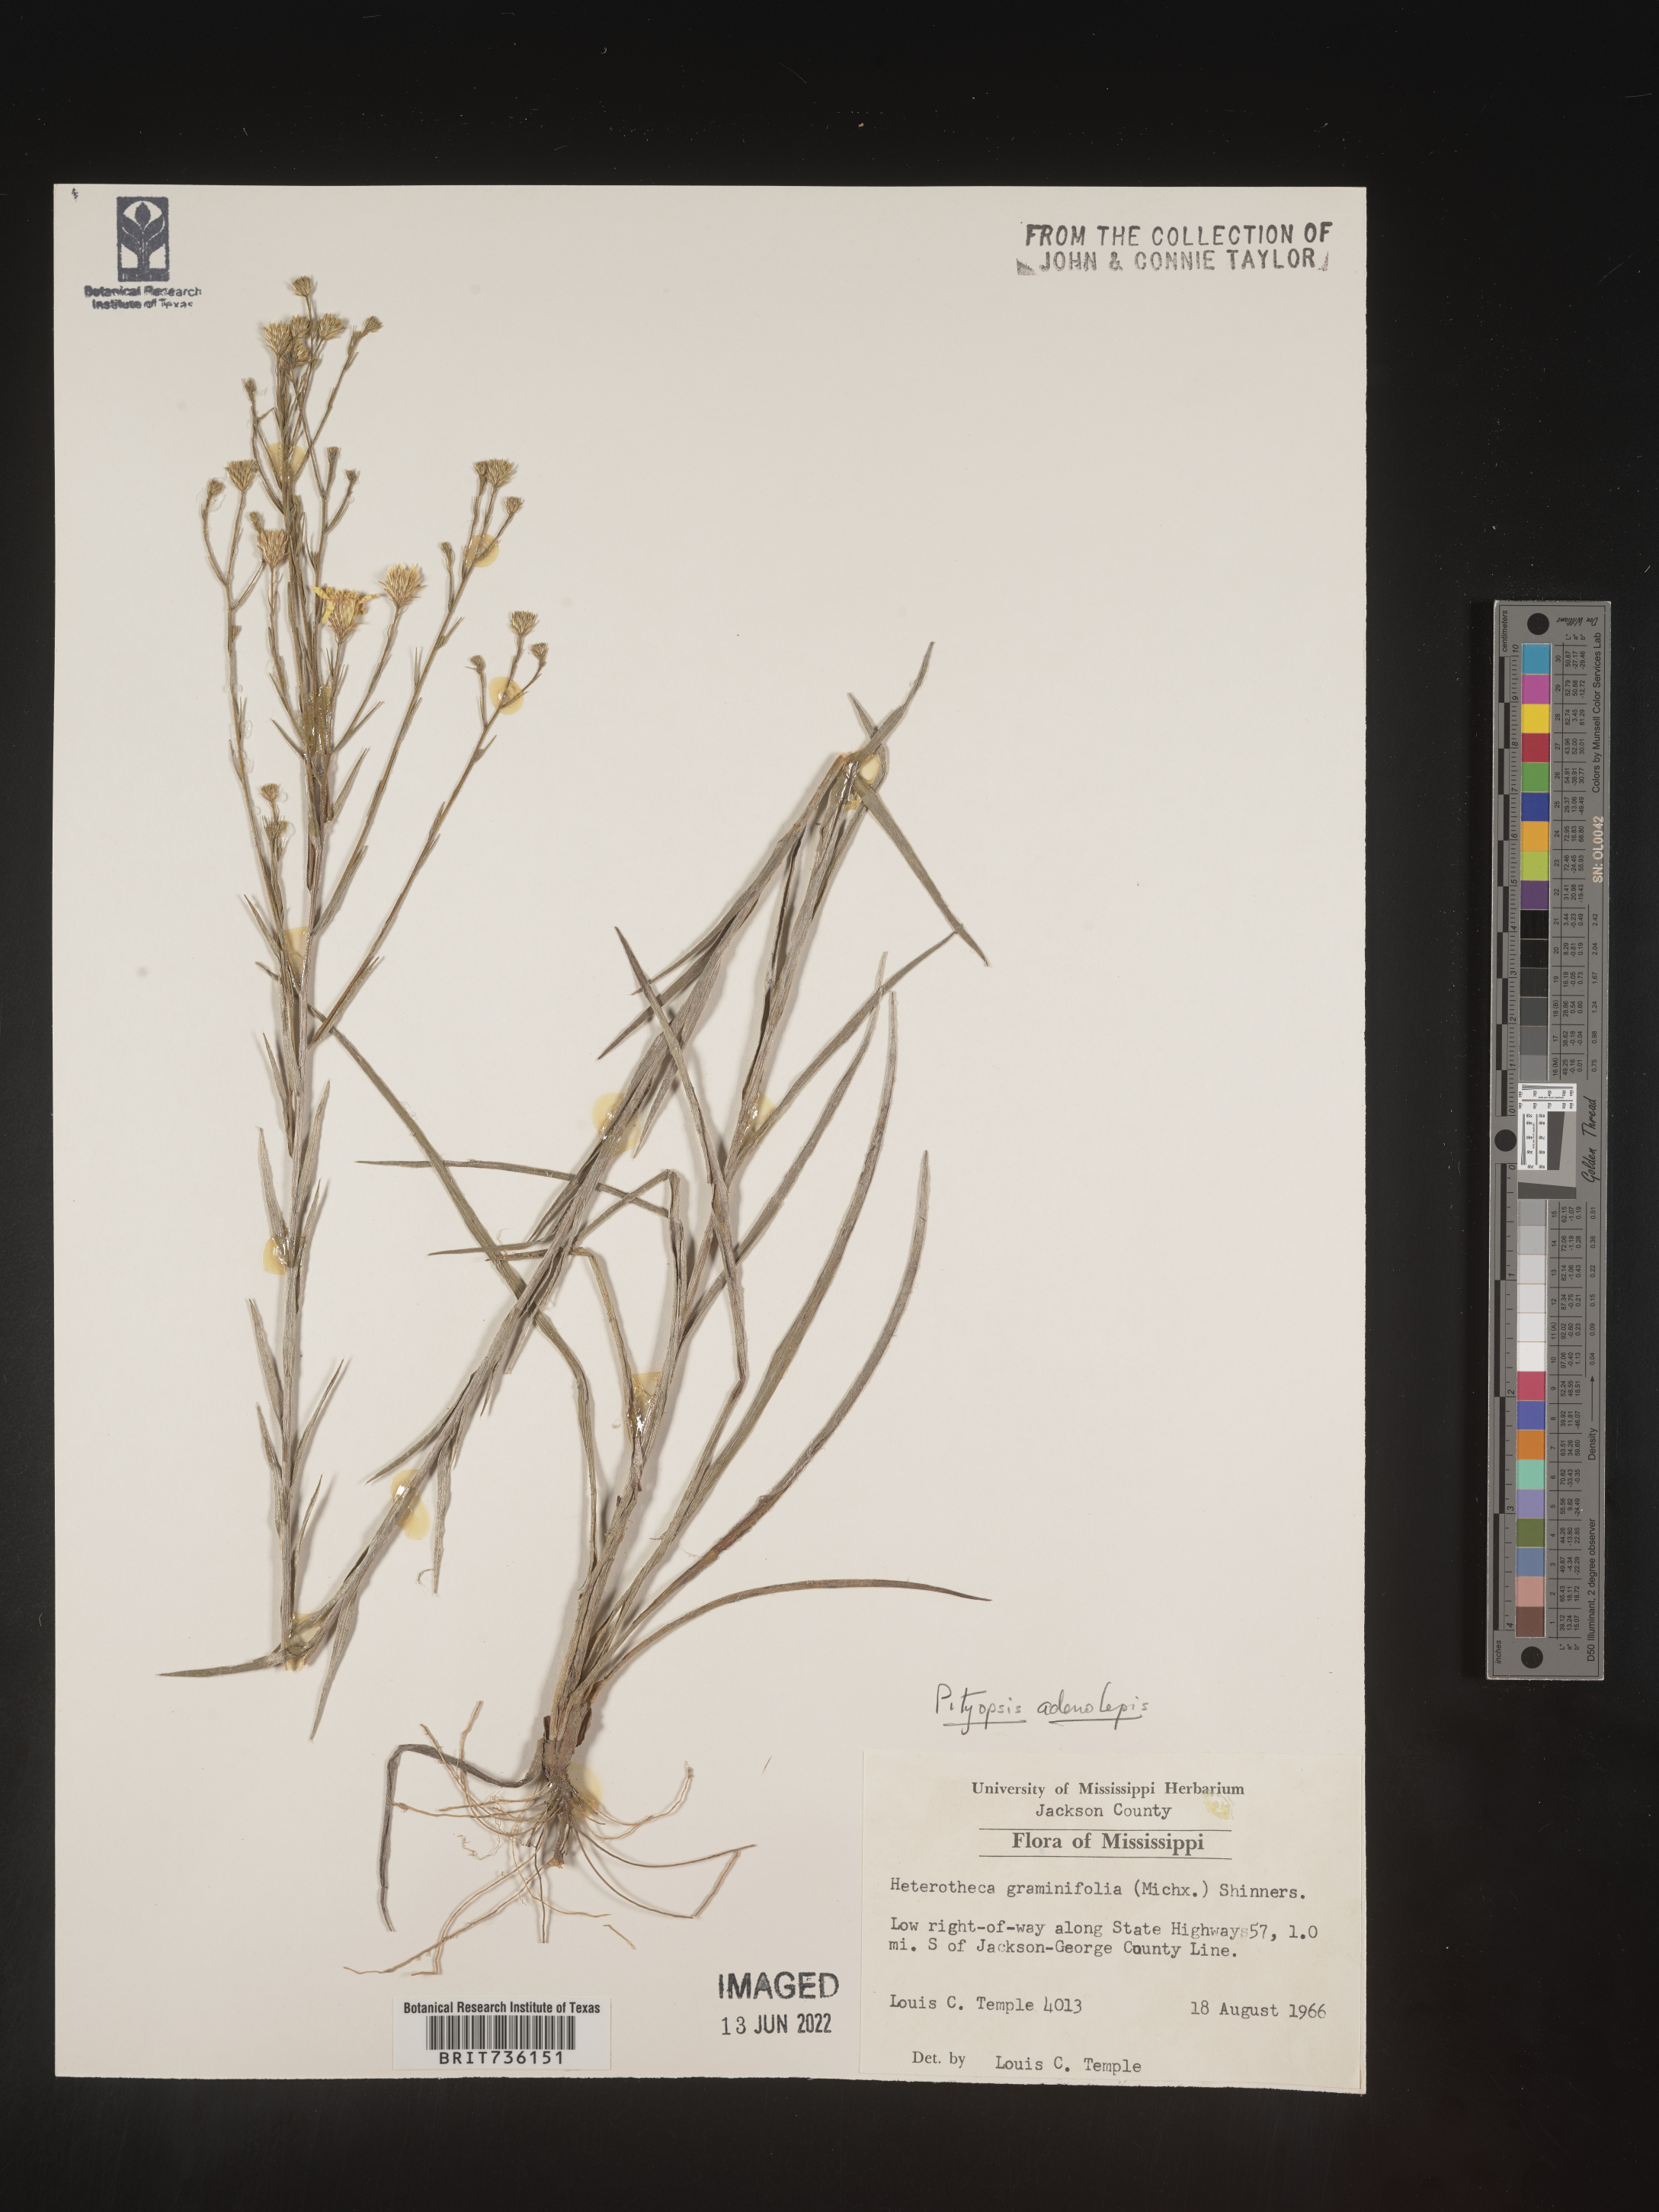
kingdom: Plantae
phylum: Tracheophyta
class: Magnoliopsida
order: Asterales
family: Asteraceae
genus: Pityopsis
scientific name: Pityopsis aspera
